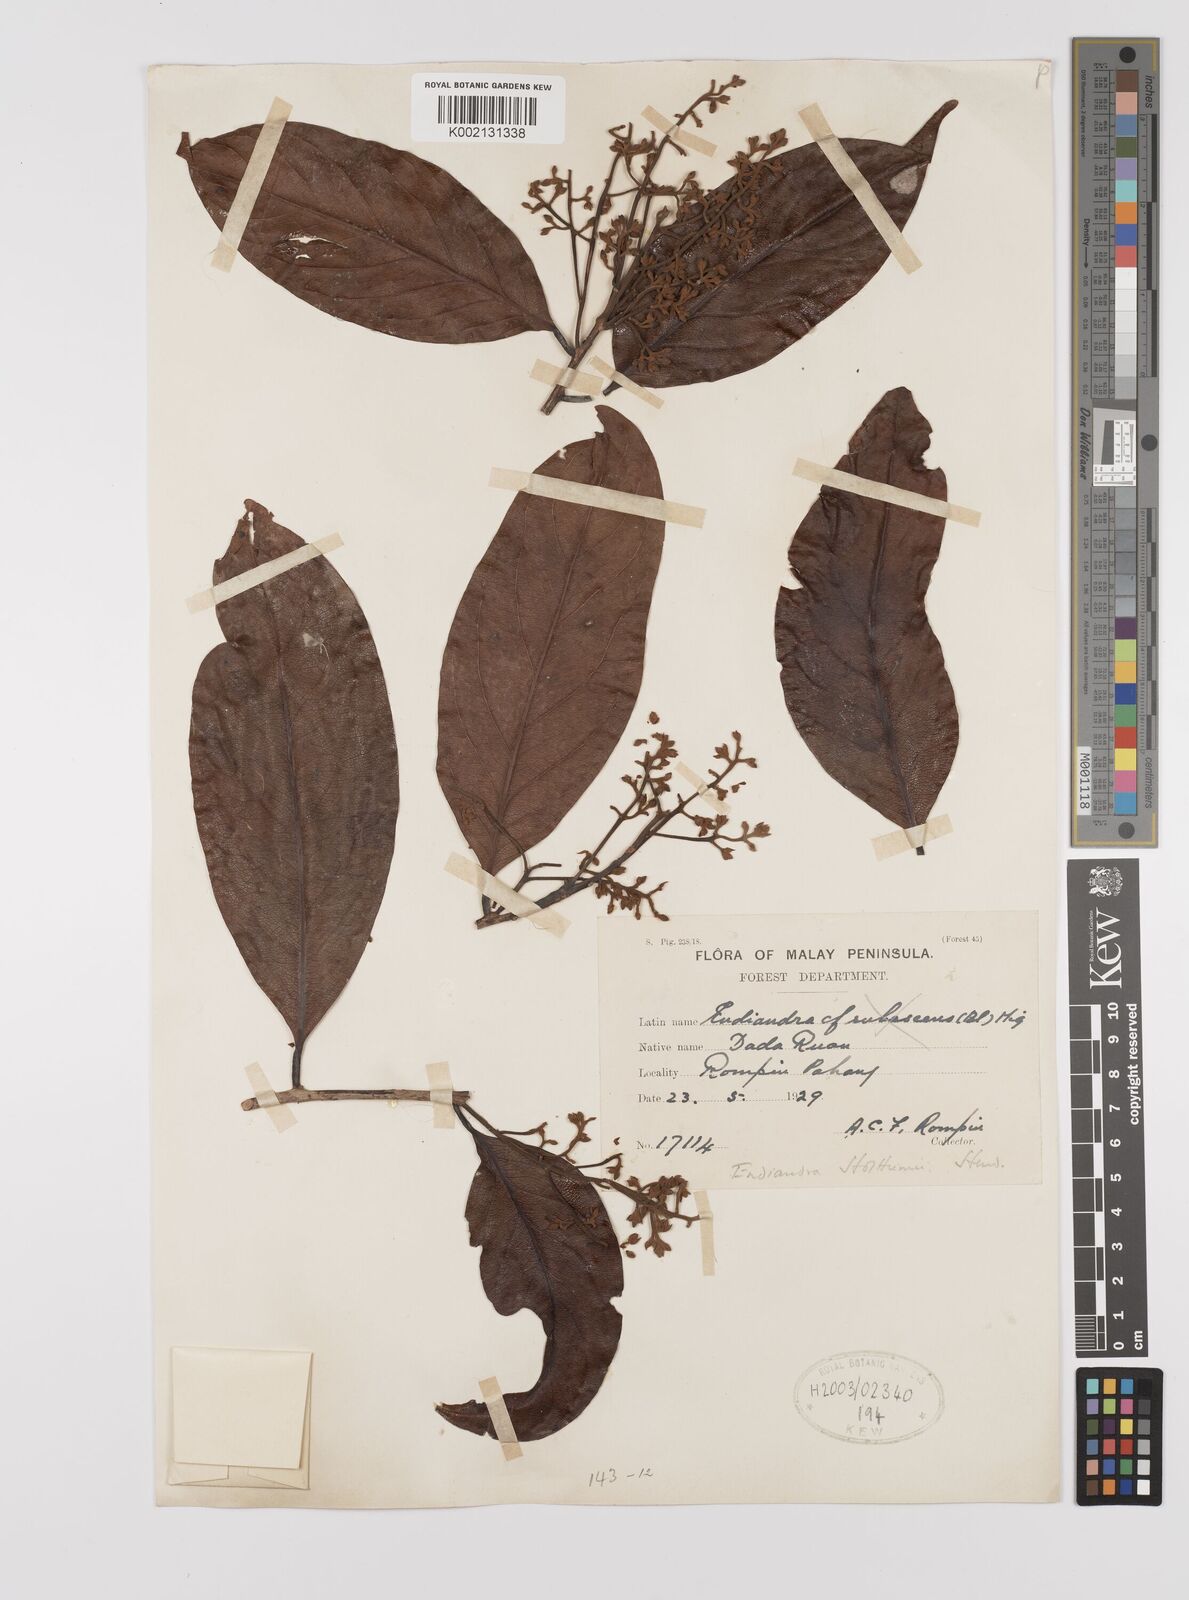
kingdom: Plantae
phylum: Tracheophyta
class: Magnoliopsida
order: Laurales
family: Lauraceae
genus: Endiandra
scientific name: Endiandra holttumii
